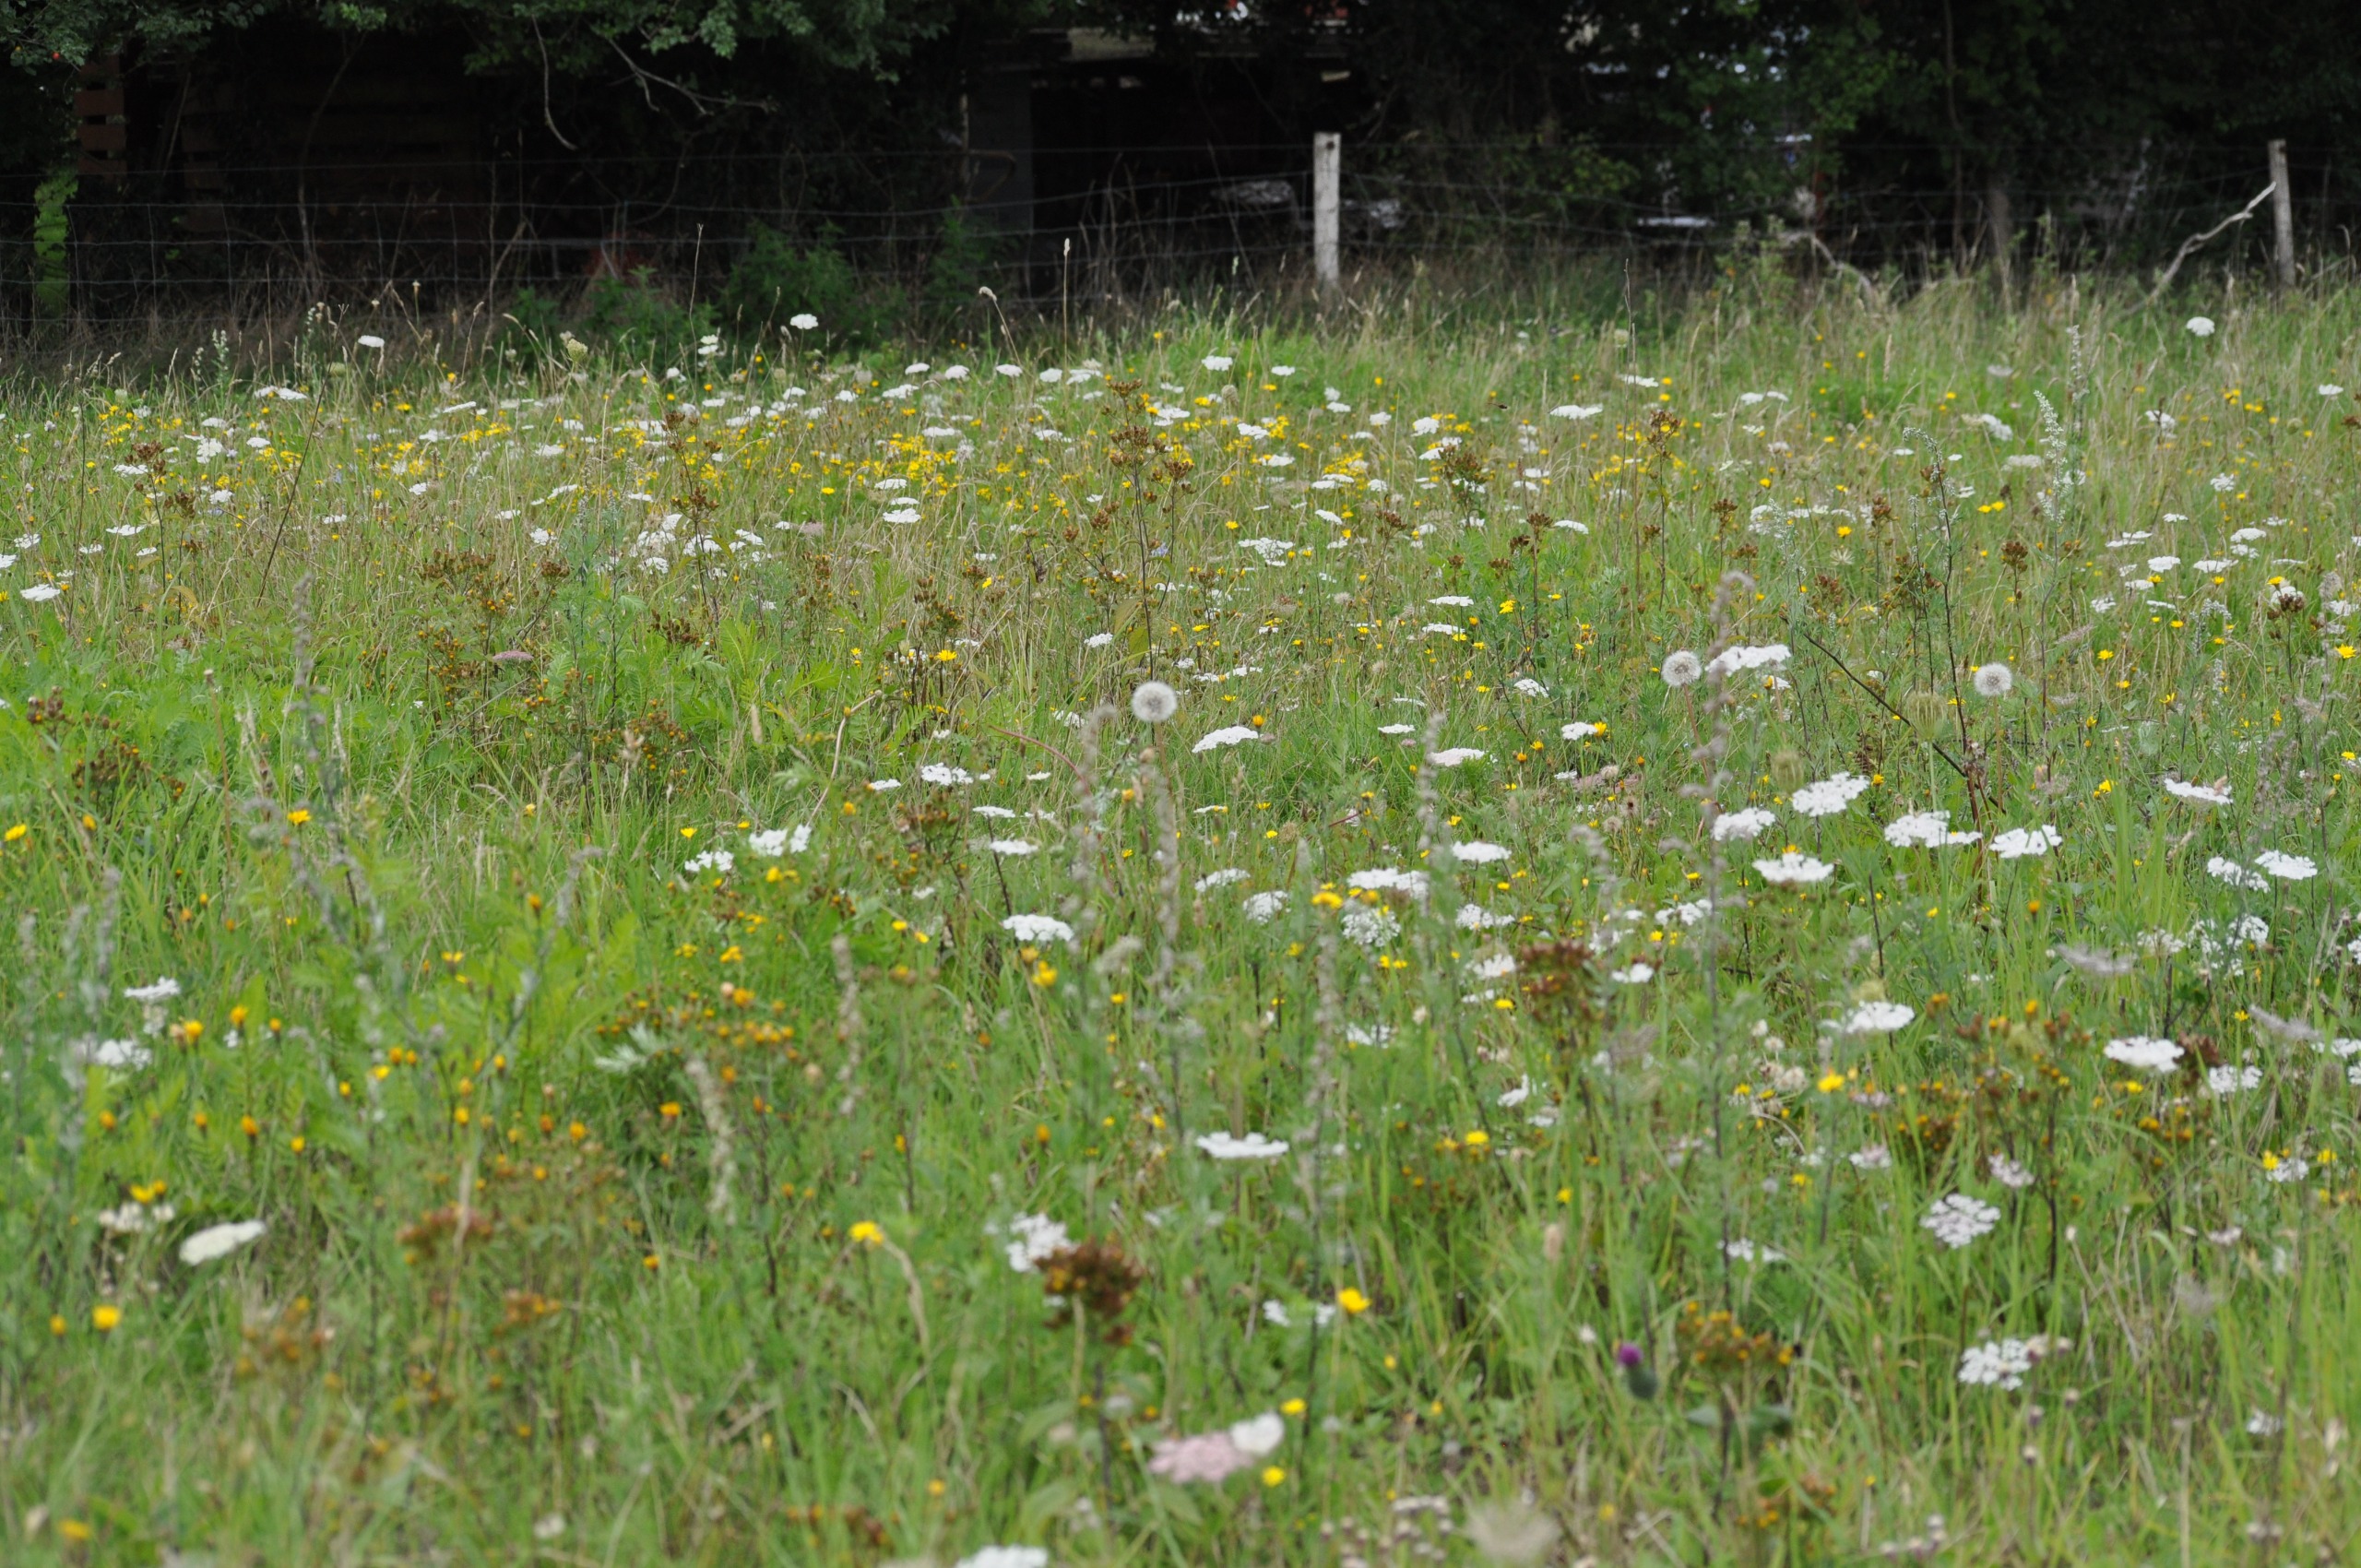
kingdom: Plantae
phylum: Tracheophyta
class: Magnoliopsida
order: Asterales
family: Asteraceae
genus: Pentanema
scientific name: Pentanema squarrosum
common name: Trekløft-alant
